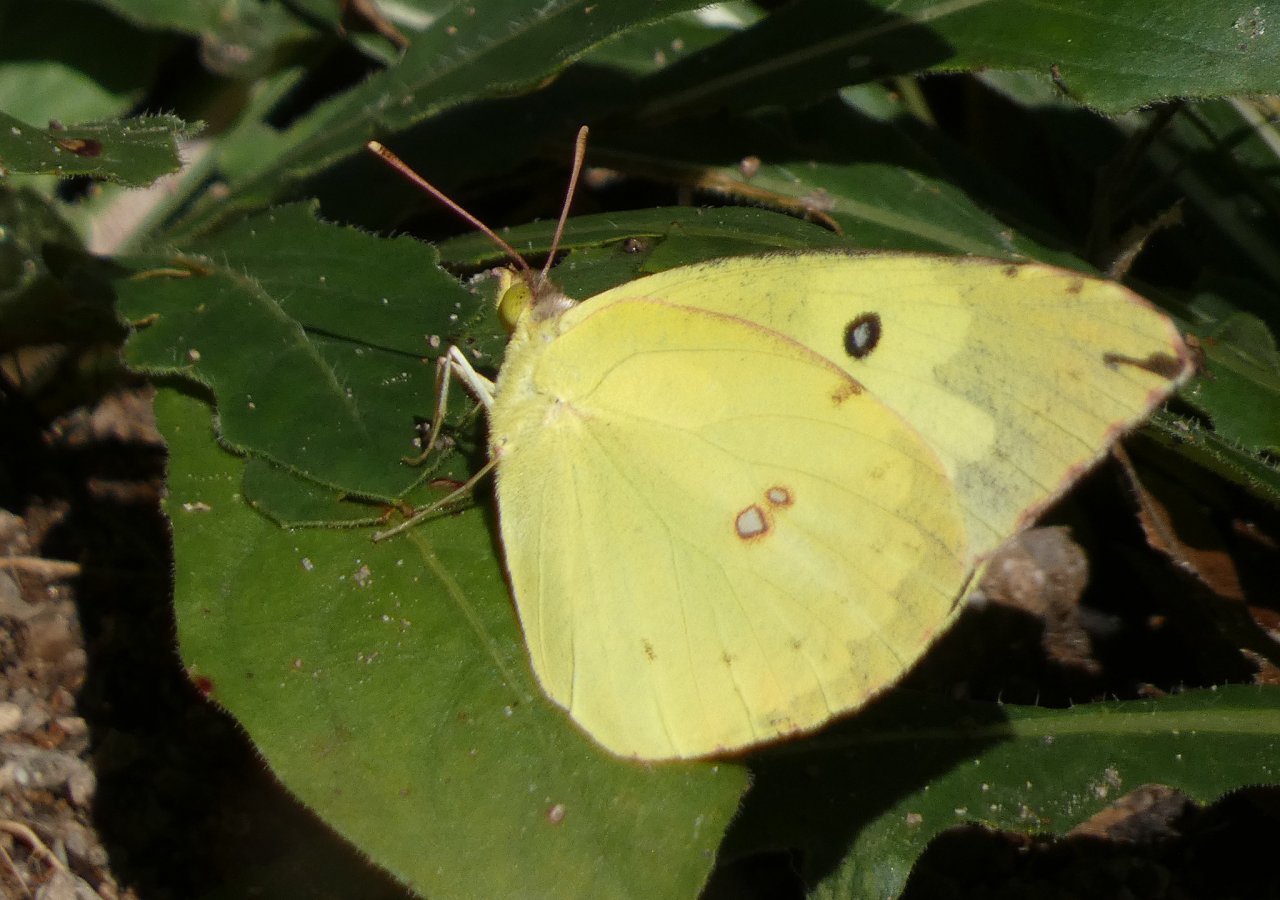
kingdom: Animalia
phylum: Arthropoda
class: Insecta
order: Lepidoptera
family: Pieridae
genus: Zerene
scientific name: Zerene cesonia
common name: Southern Dogface
